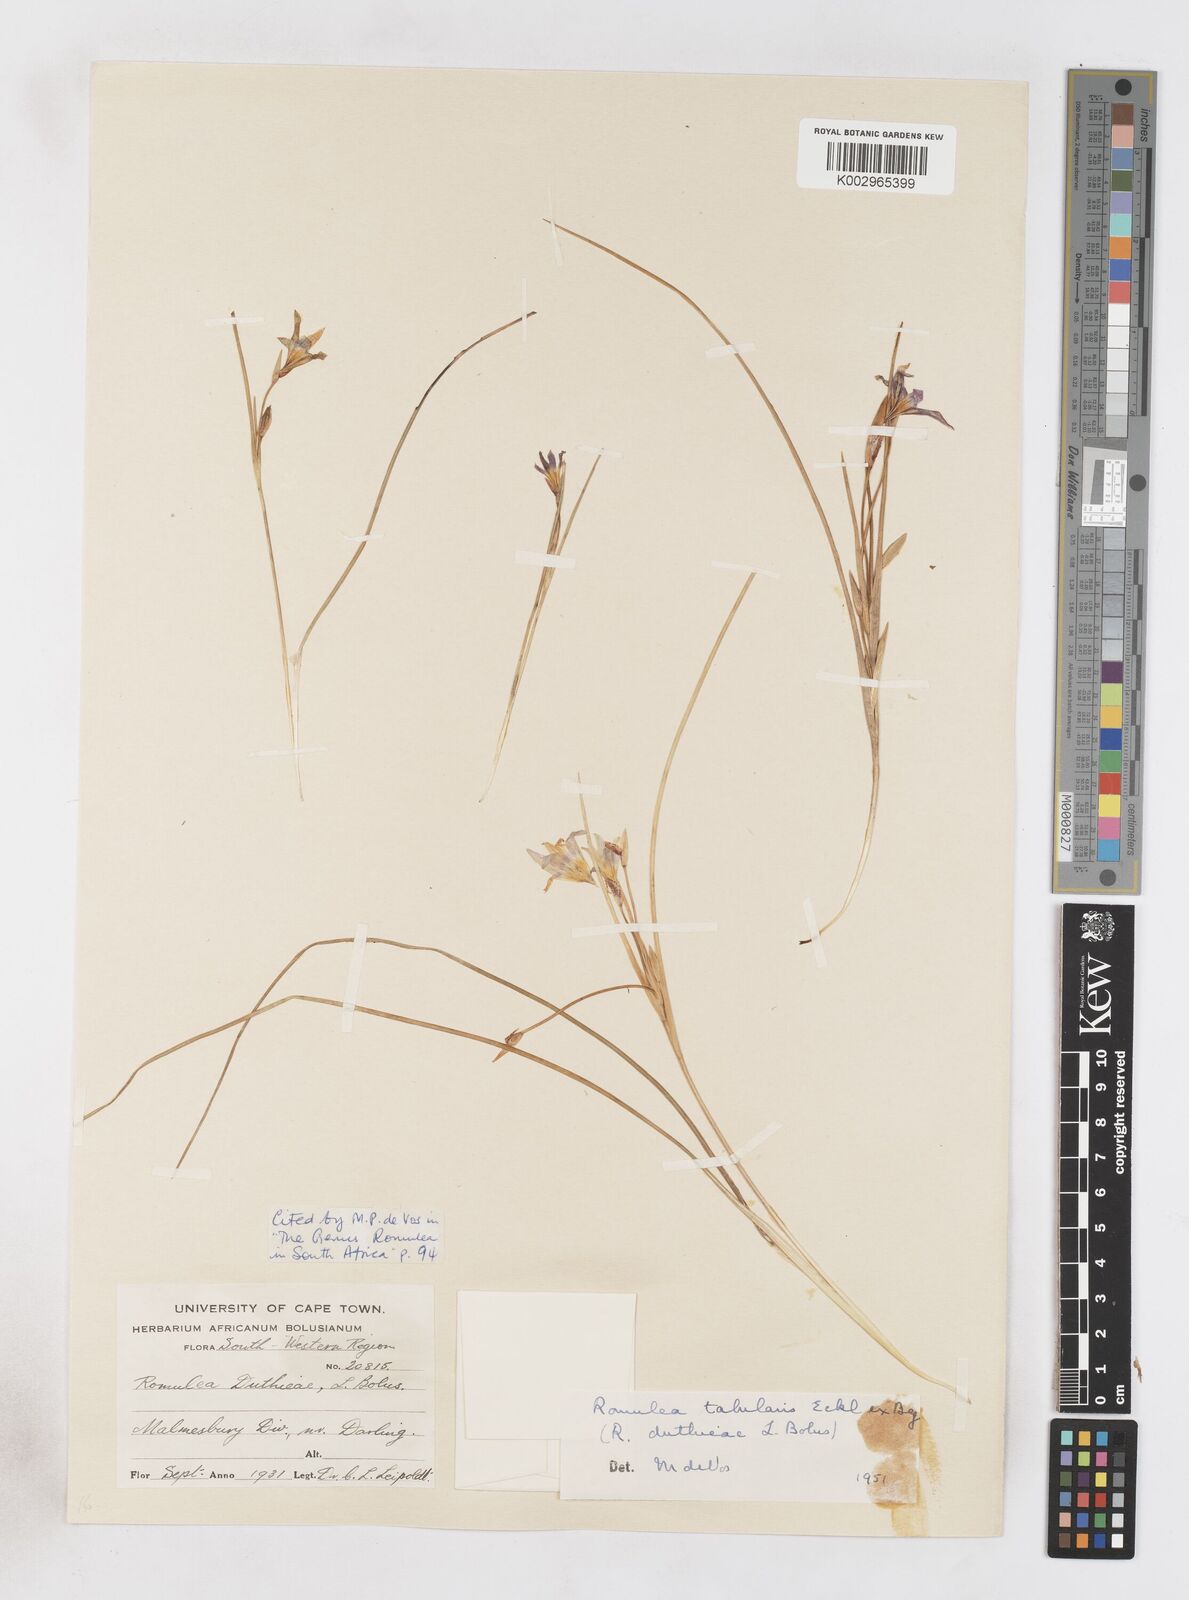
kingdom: Plantae
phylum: Tracheophyta
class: Liliopsida
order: Asparagales
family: Iridaceae
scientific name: Iridaceae
